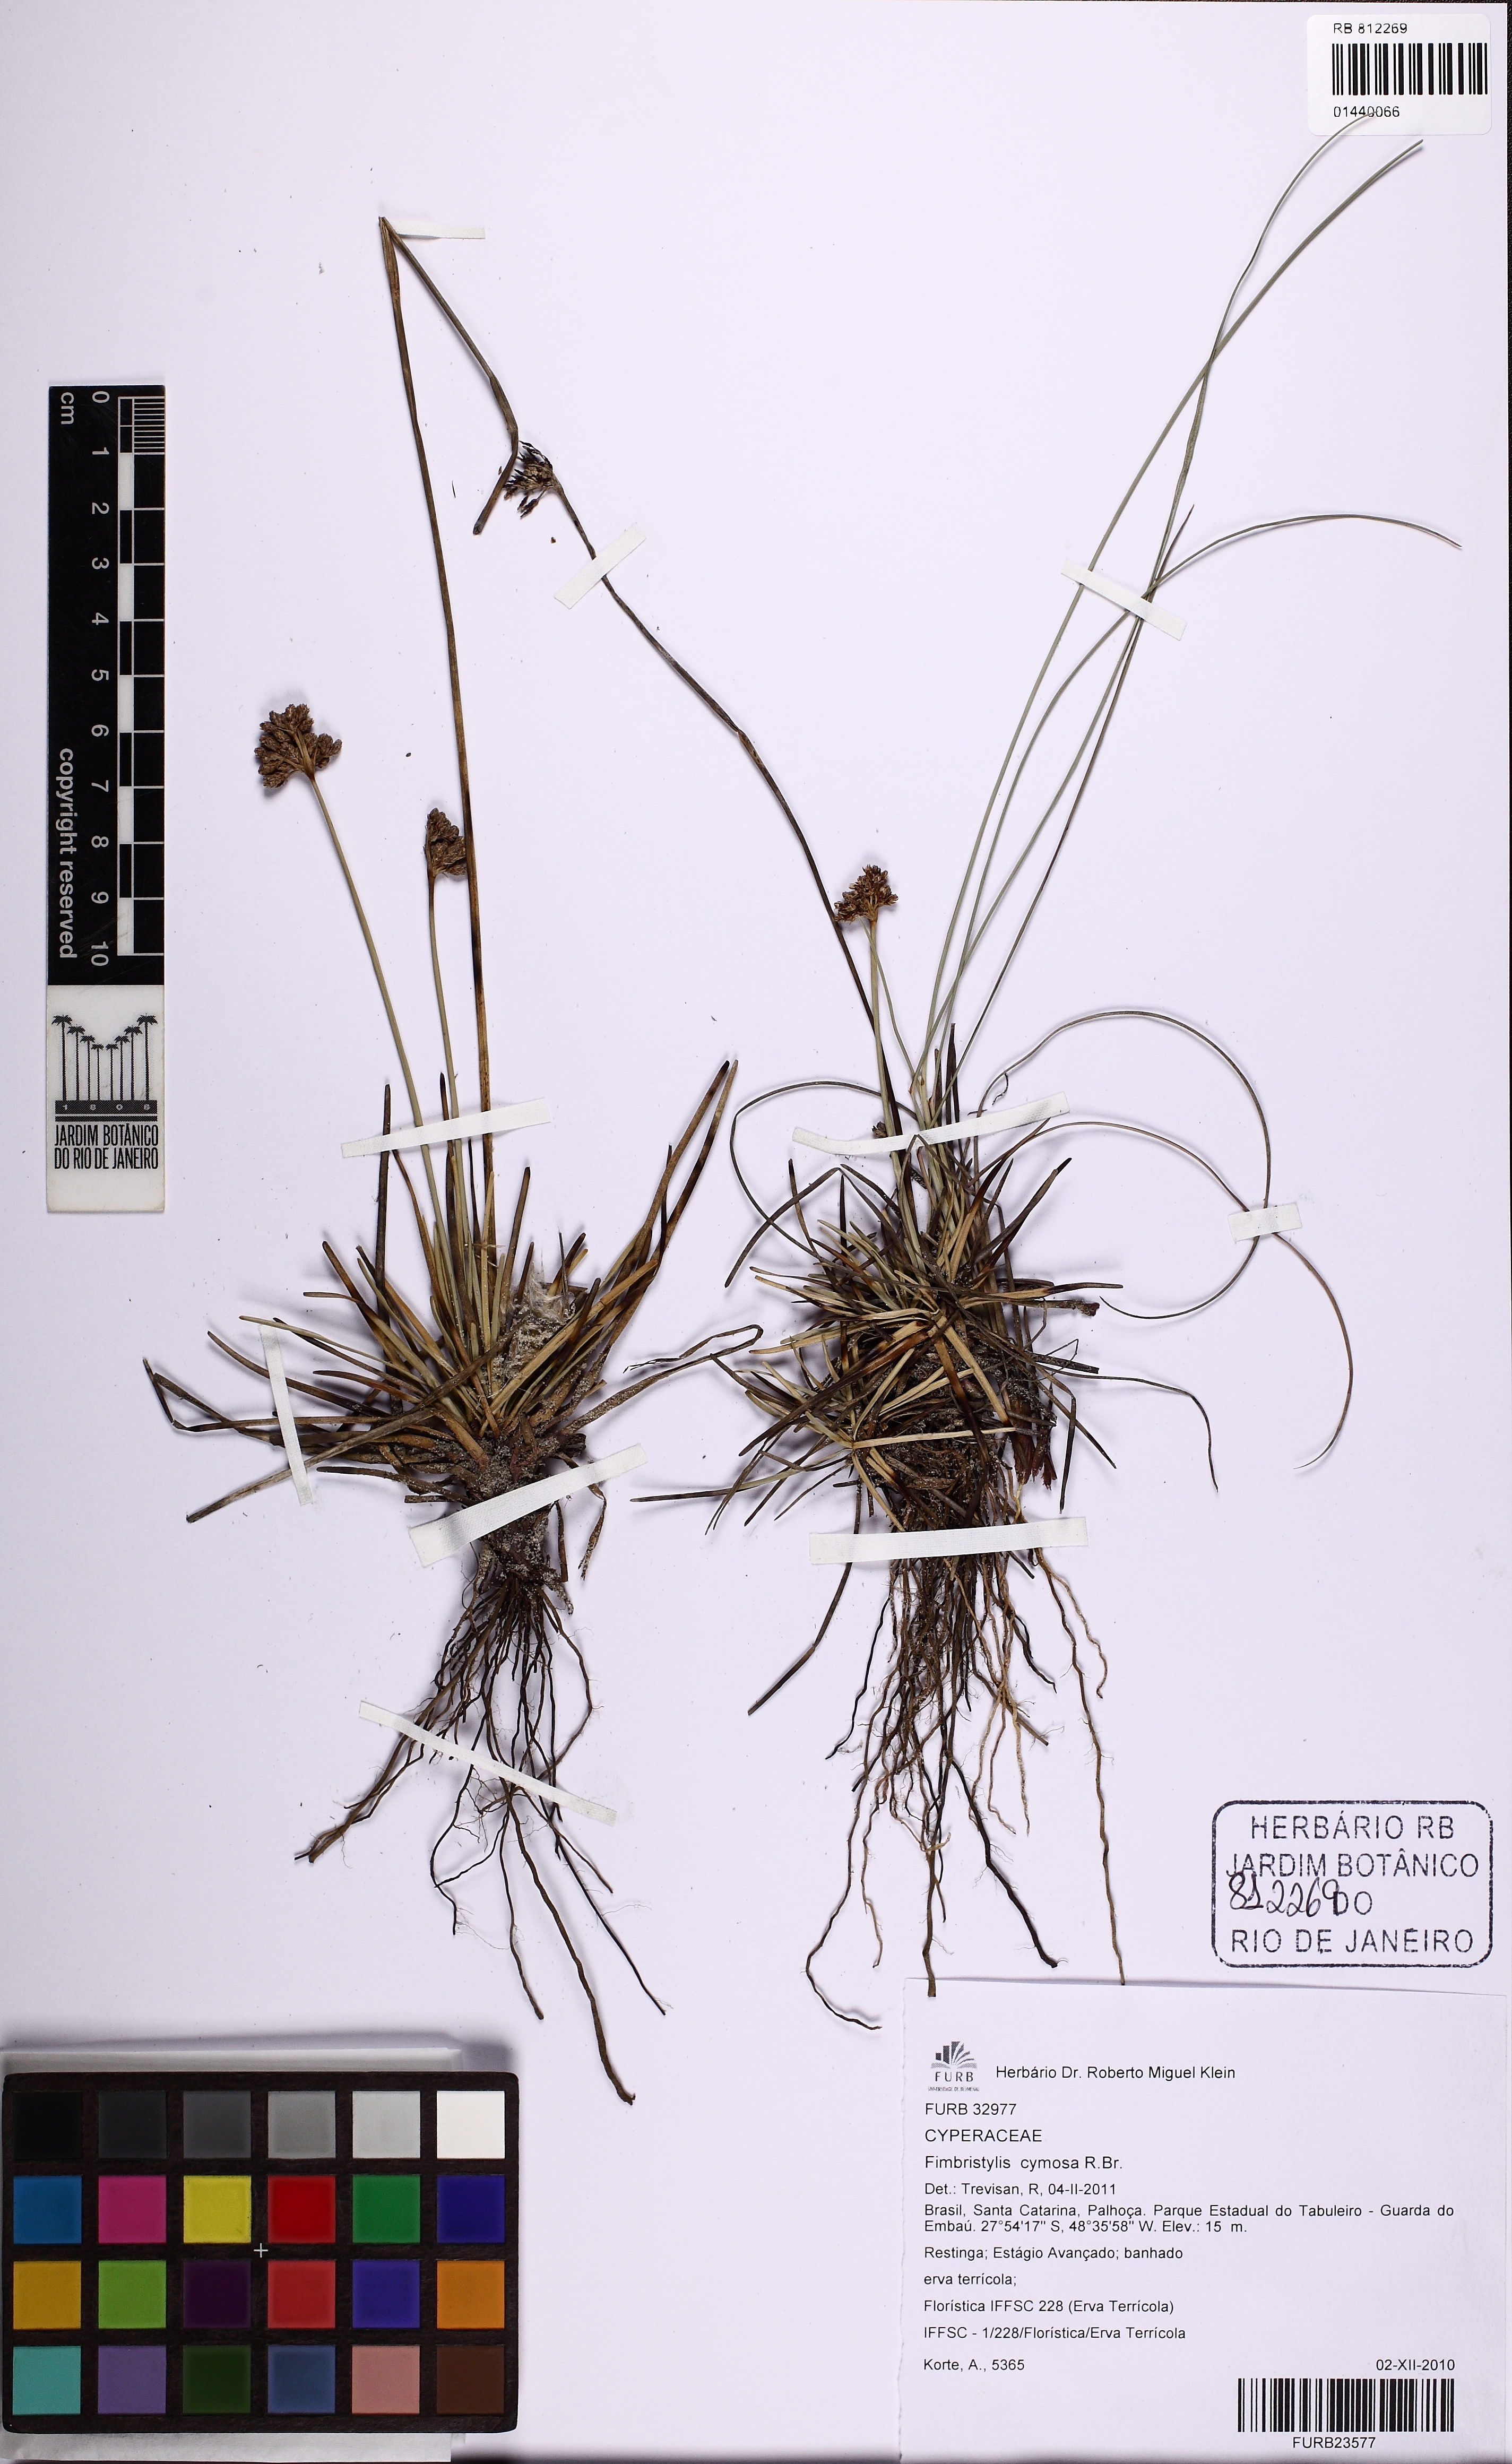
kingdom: Plantae
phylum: Tracheophyta
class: Liliopsida
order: Poales
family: Cyperaceae
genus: Fimbristylis
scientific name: Fimbristylis cymosa
